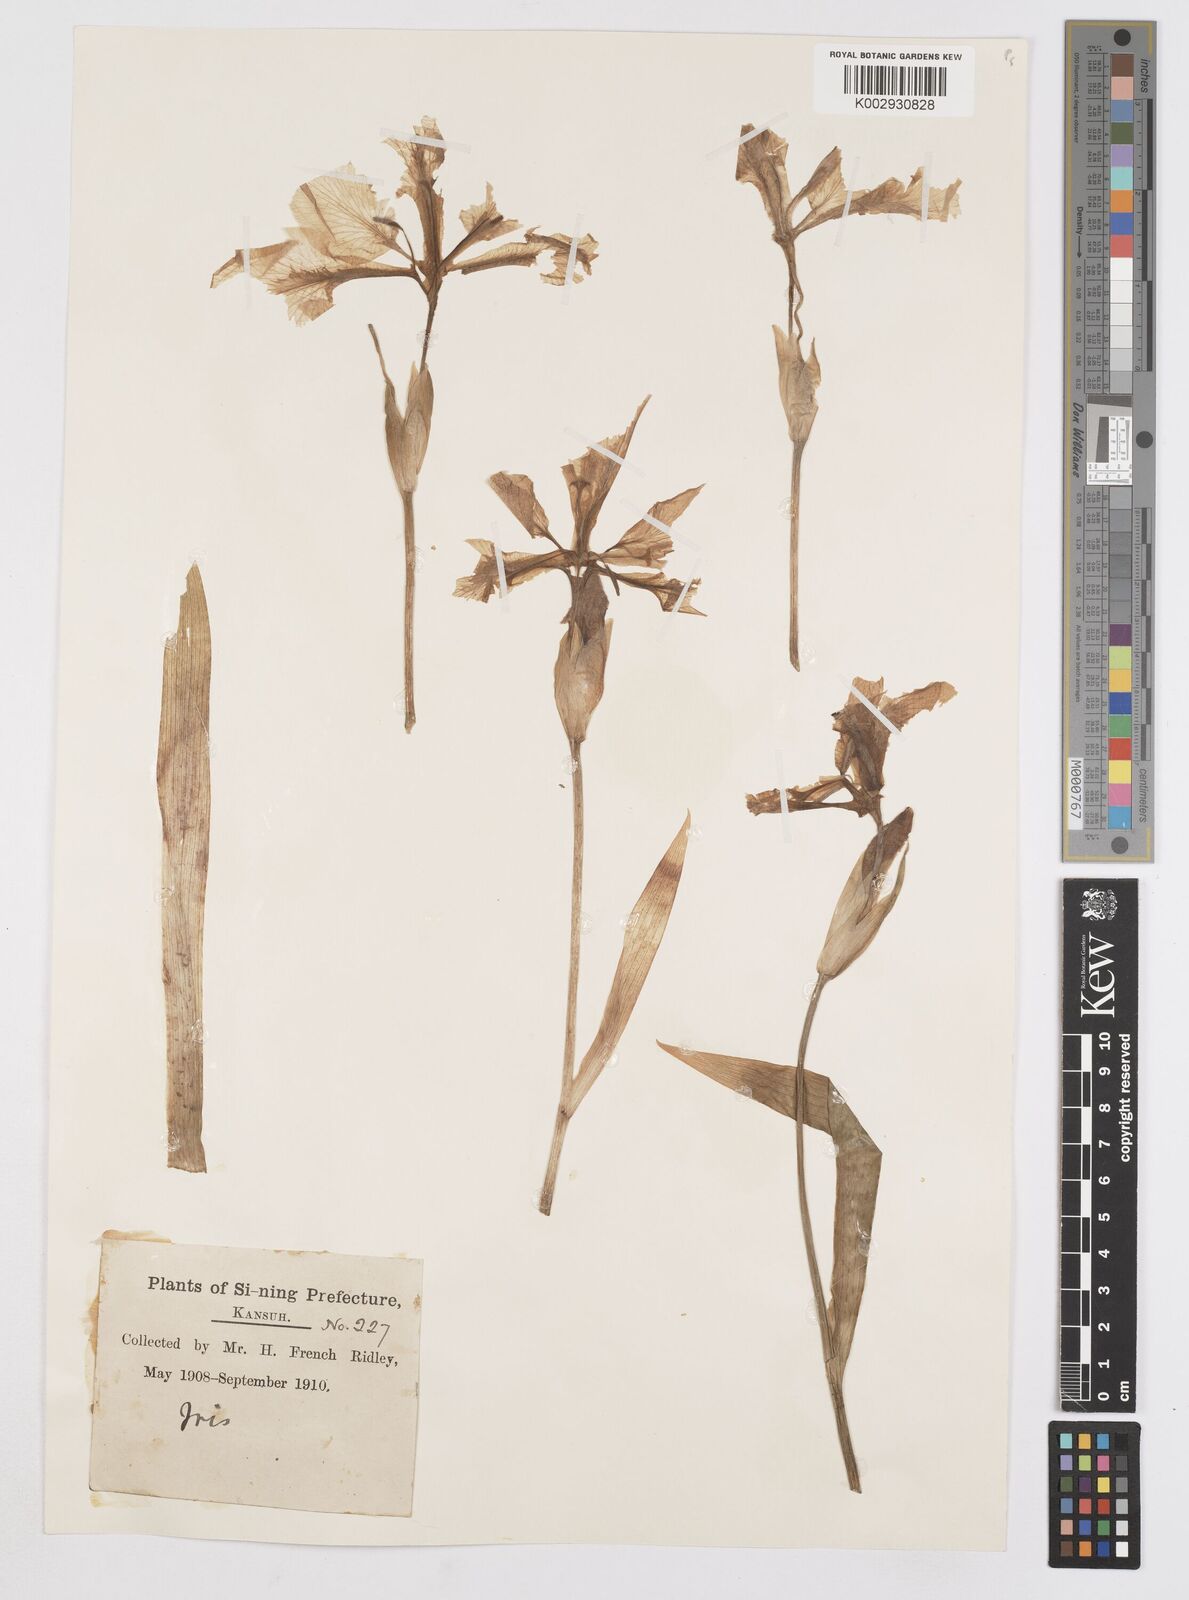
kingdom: Plantae
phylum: Tracheophyta
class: Liliopsida
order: Asparagales
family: Iridaceae
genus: Iris
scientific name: Iris tectorum
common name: Wall iris
